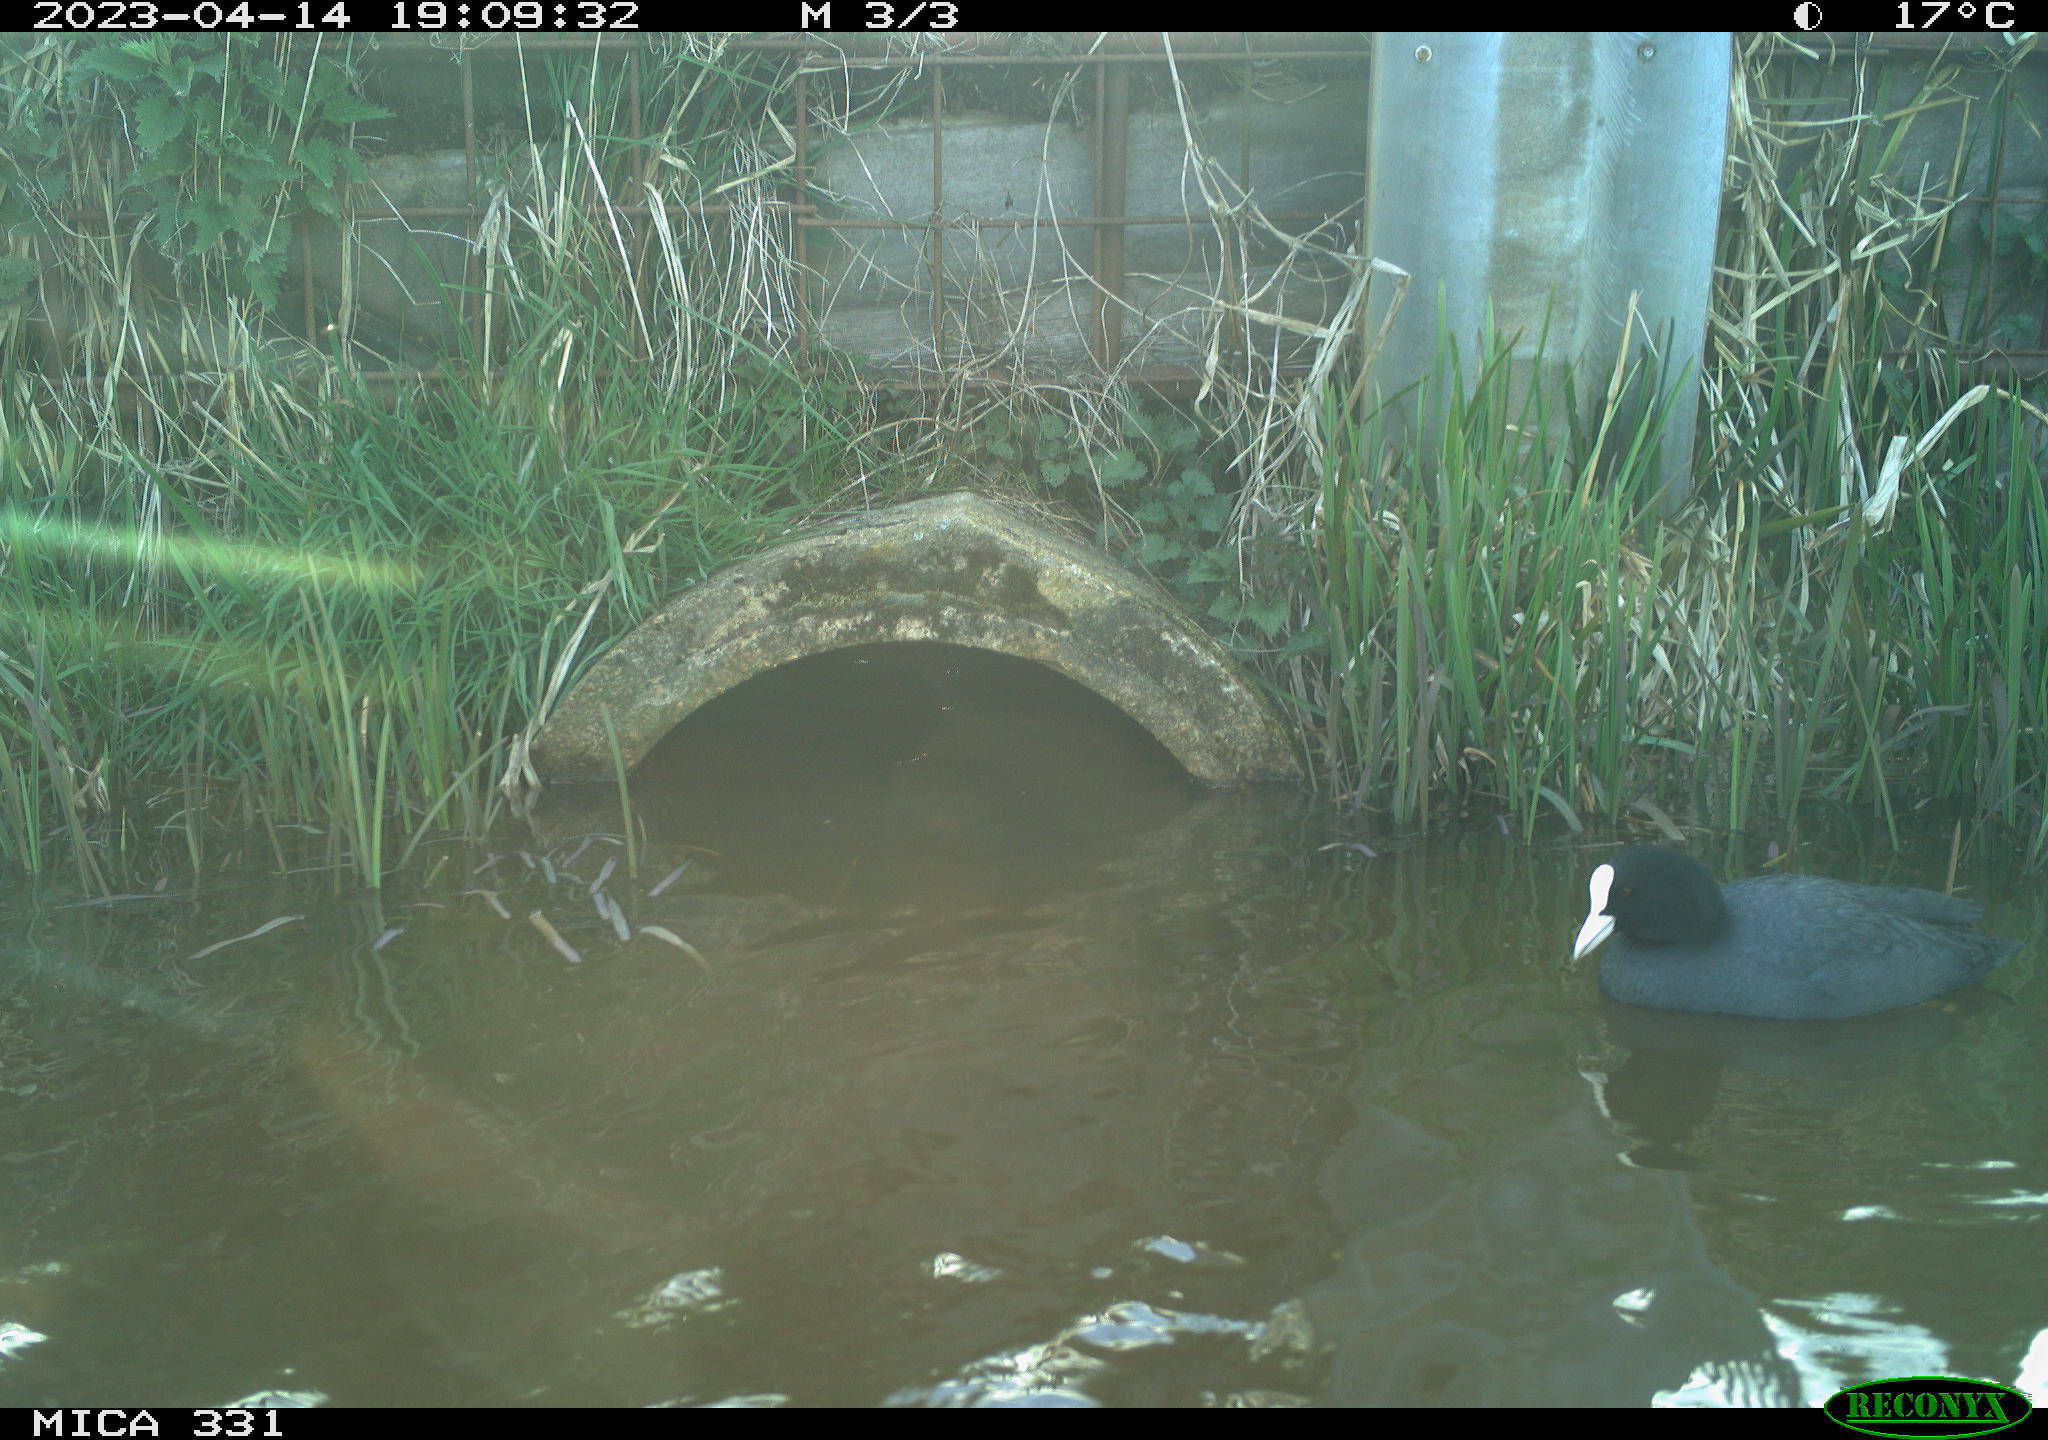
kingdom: Animalia
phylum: Chordata
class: Aves
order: Gruiformes
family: Rallidae
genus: Fulica
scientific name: Fulica atra
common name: Eurasian coot
